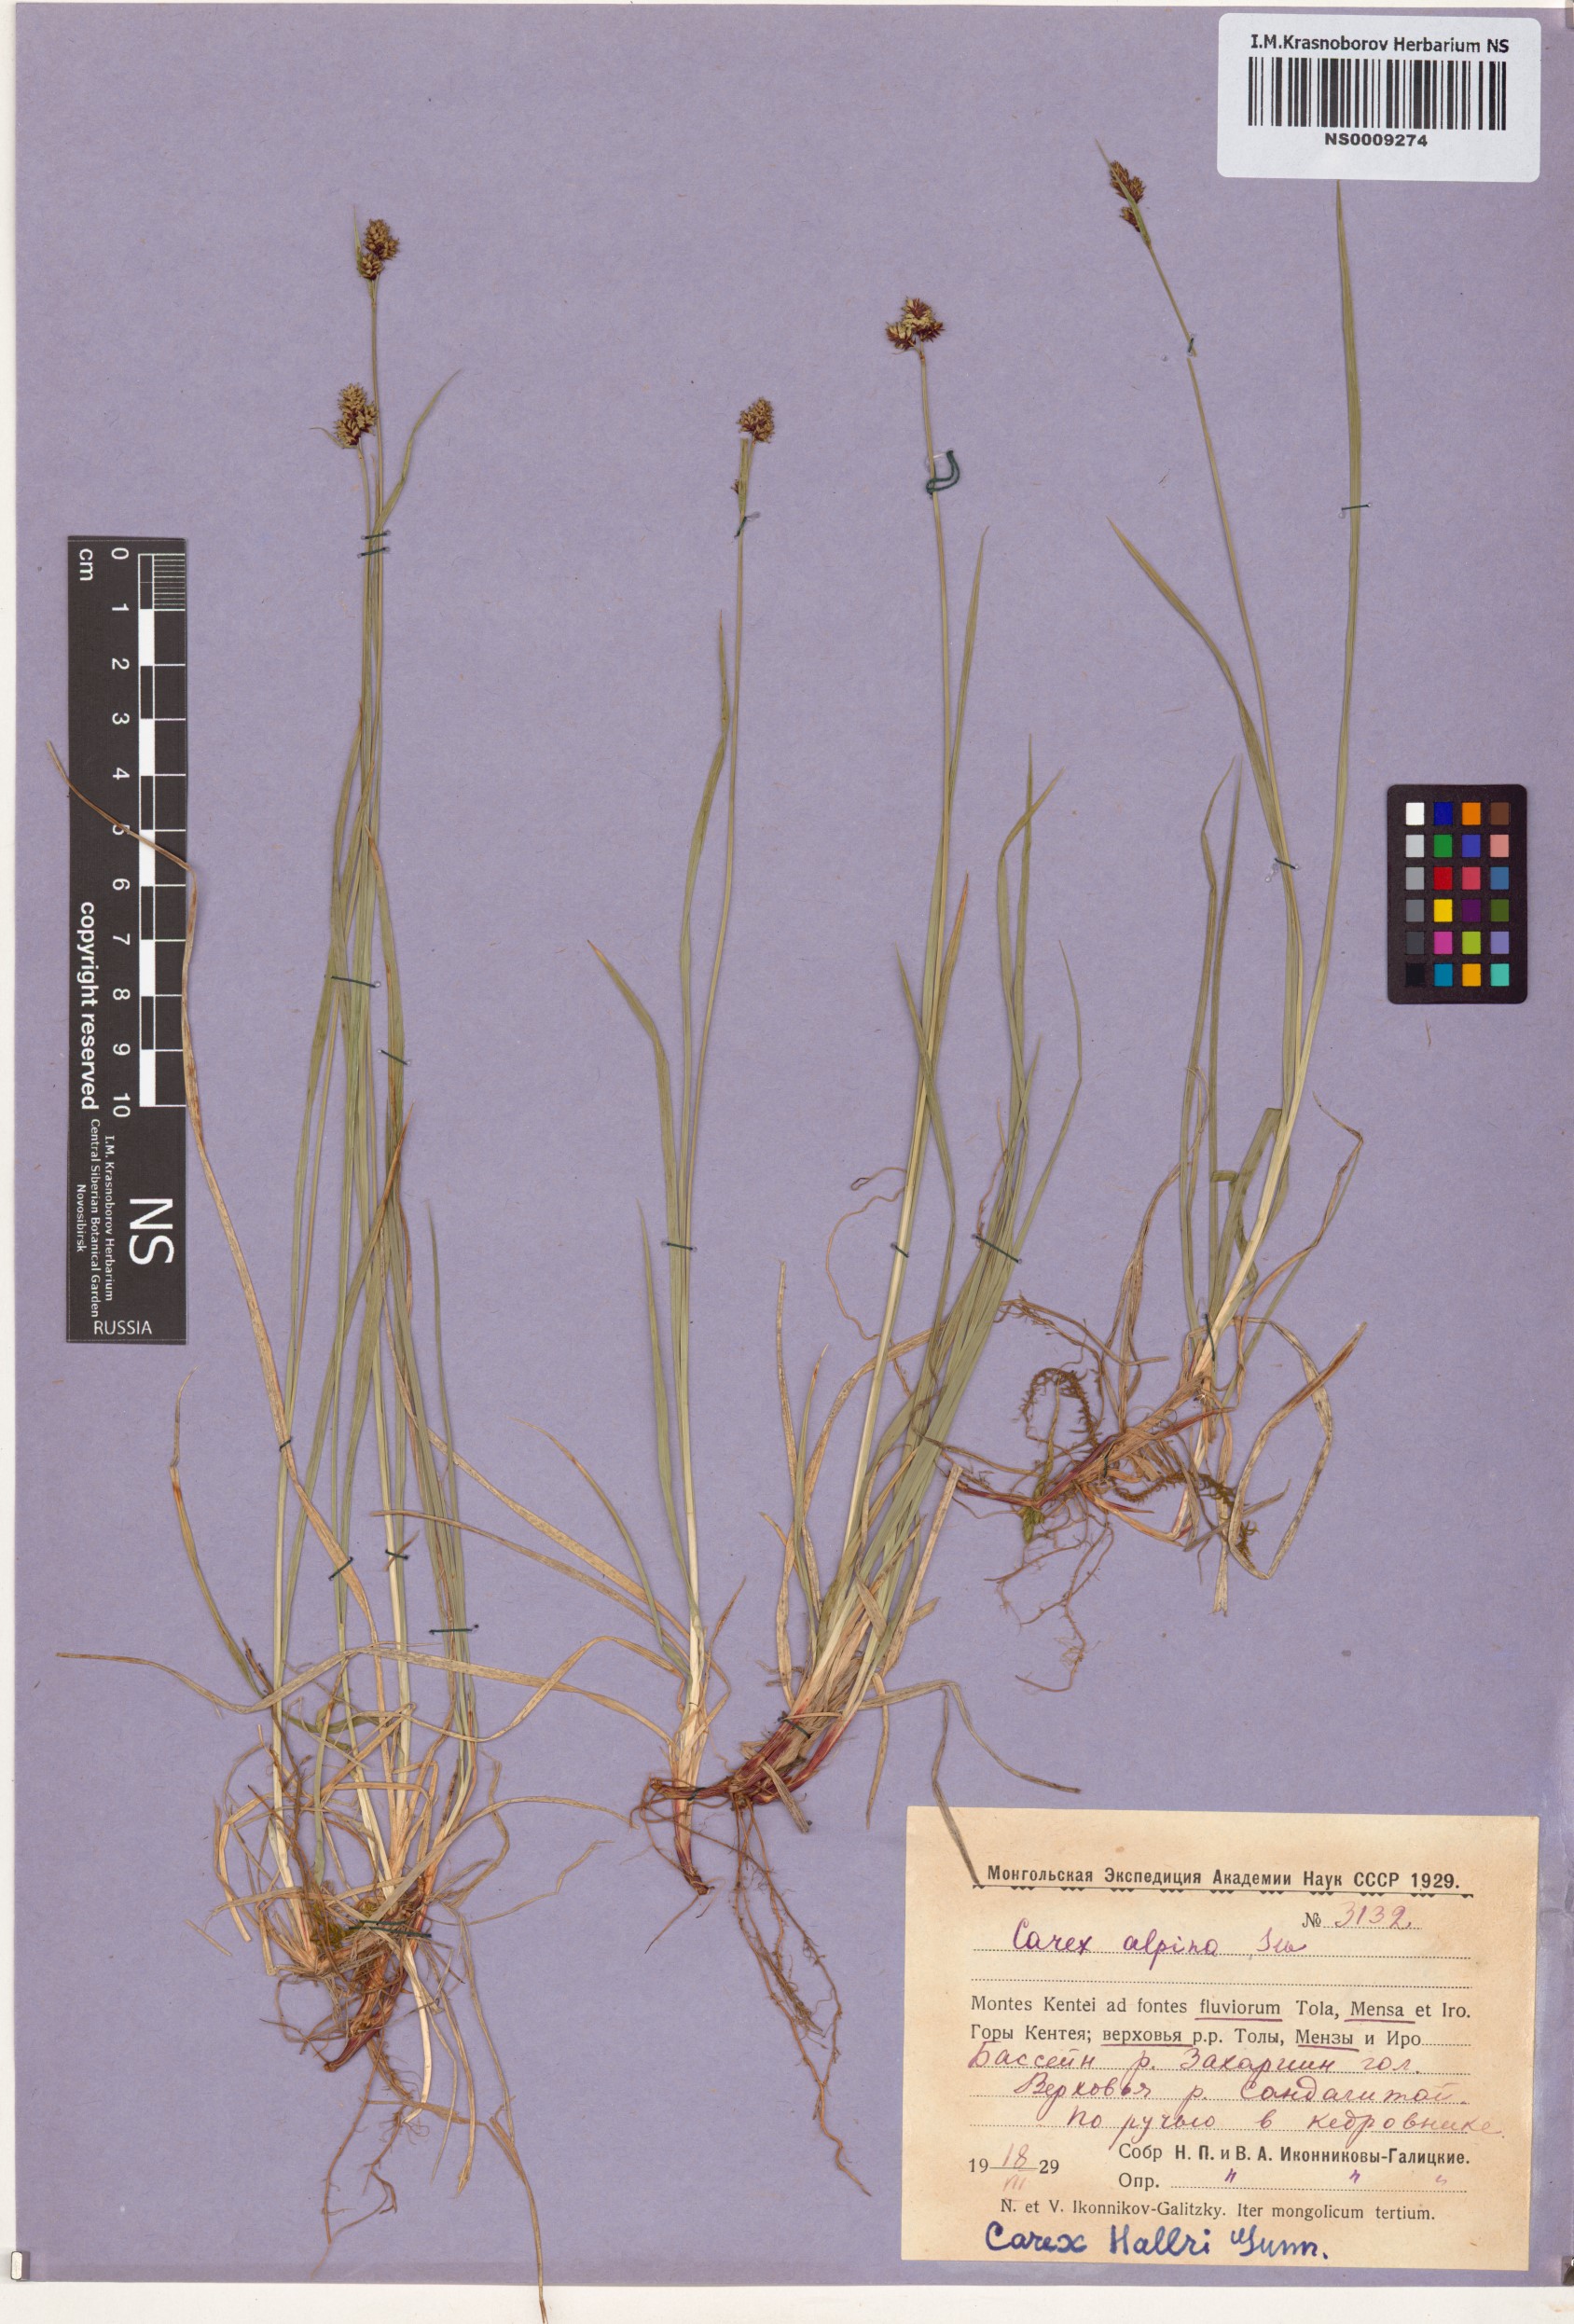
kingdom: Plantae
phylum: Tracheophyta
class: Liliopsida
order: Poales
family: Cyperaceae
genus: Carex
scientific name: Carex norvegica
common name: Close-headed alpine-sedge
